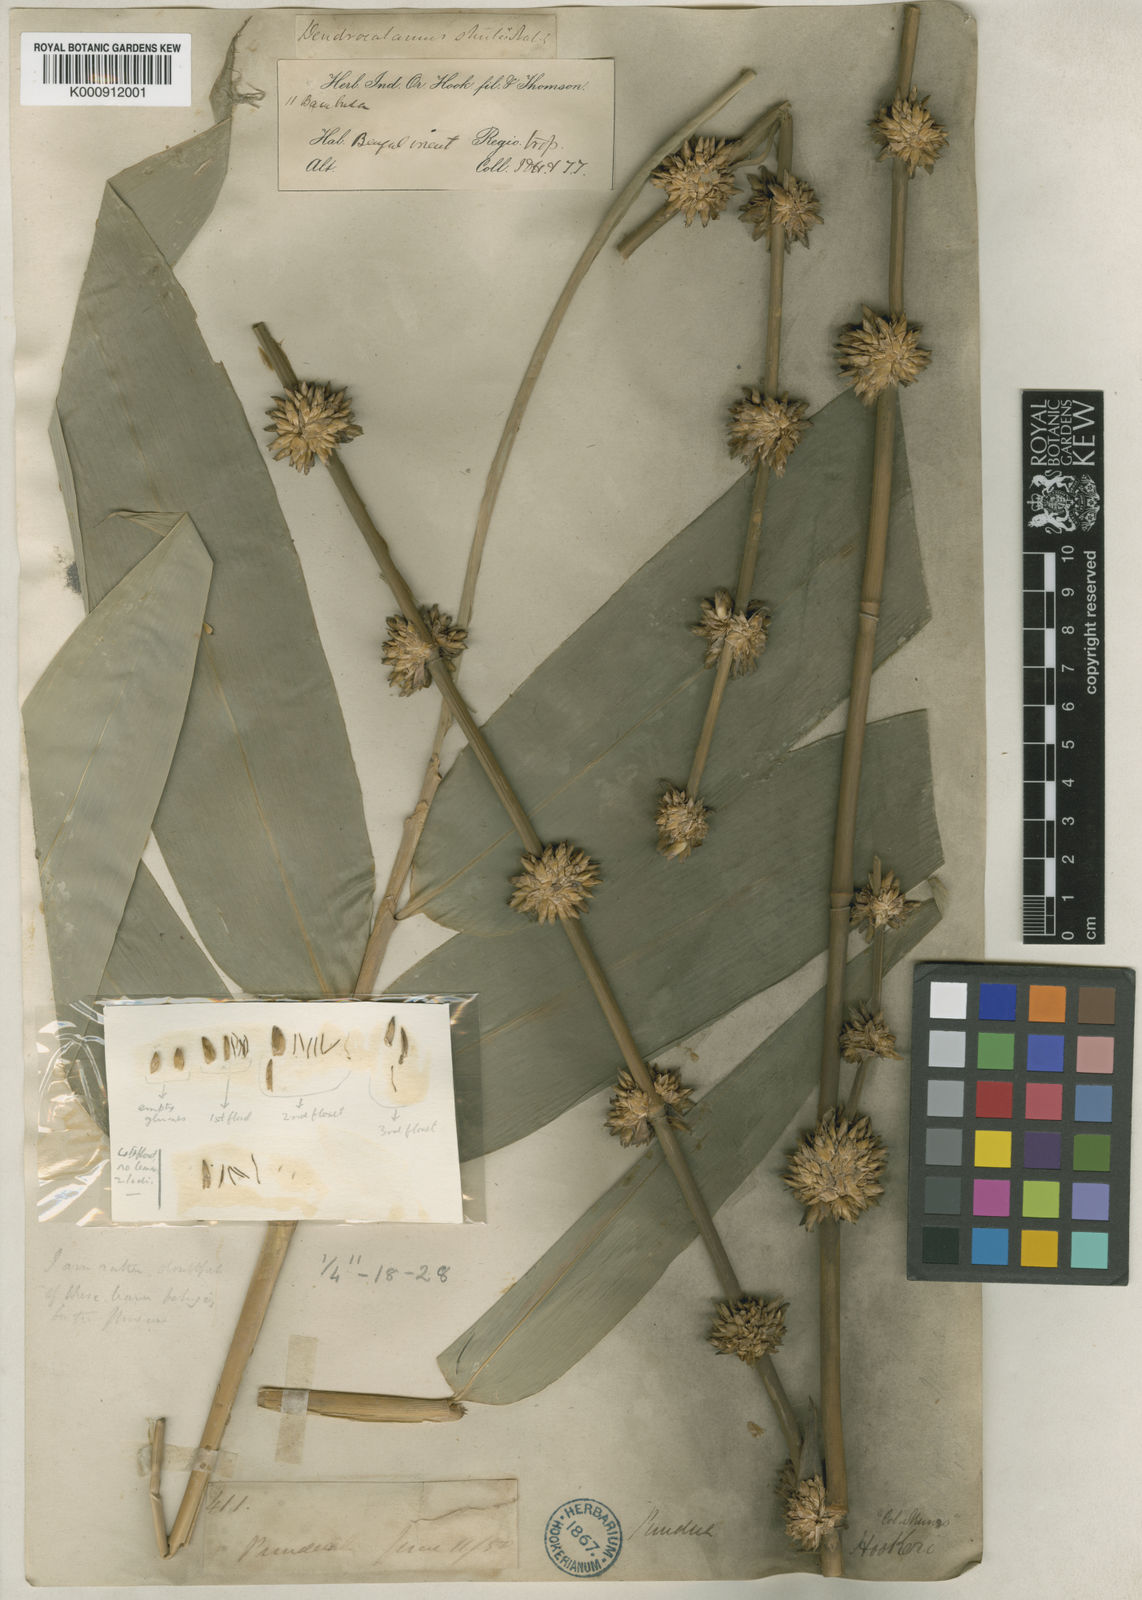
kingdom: Plantae
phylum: Tracheophyta
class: Liliopsida
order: Poales
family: Poaceae
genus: Dendrocalamus
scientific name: Dendrocalamus hookeri
